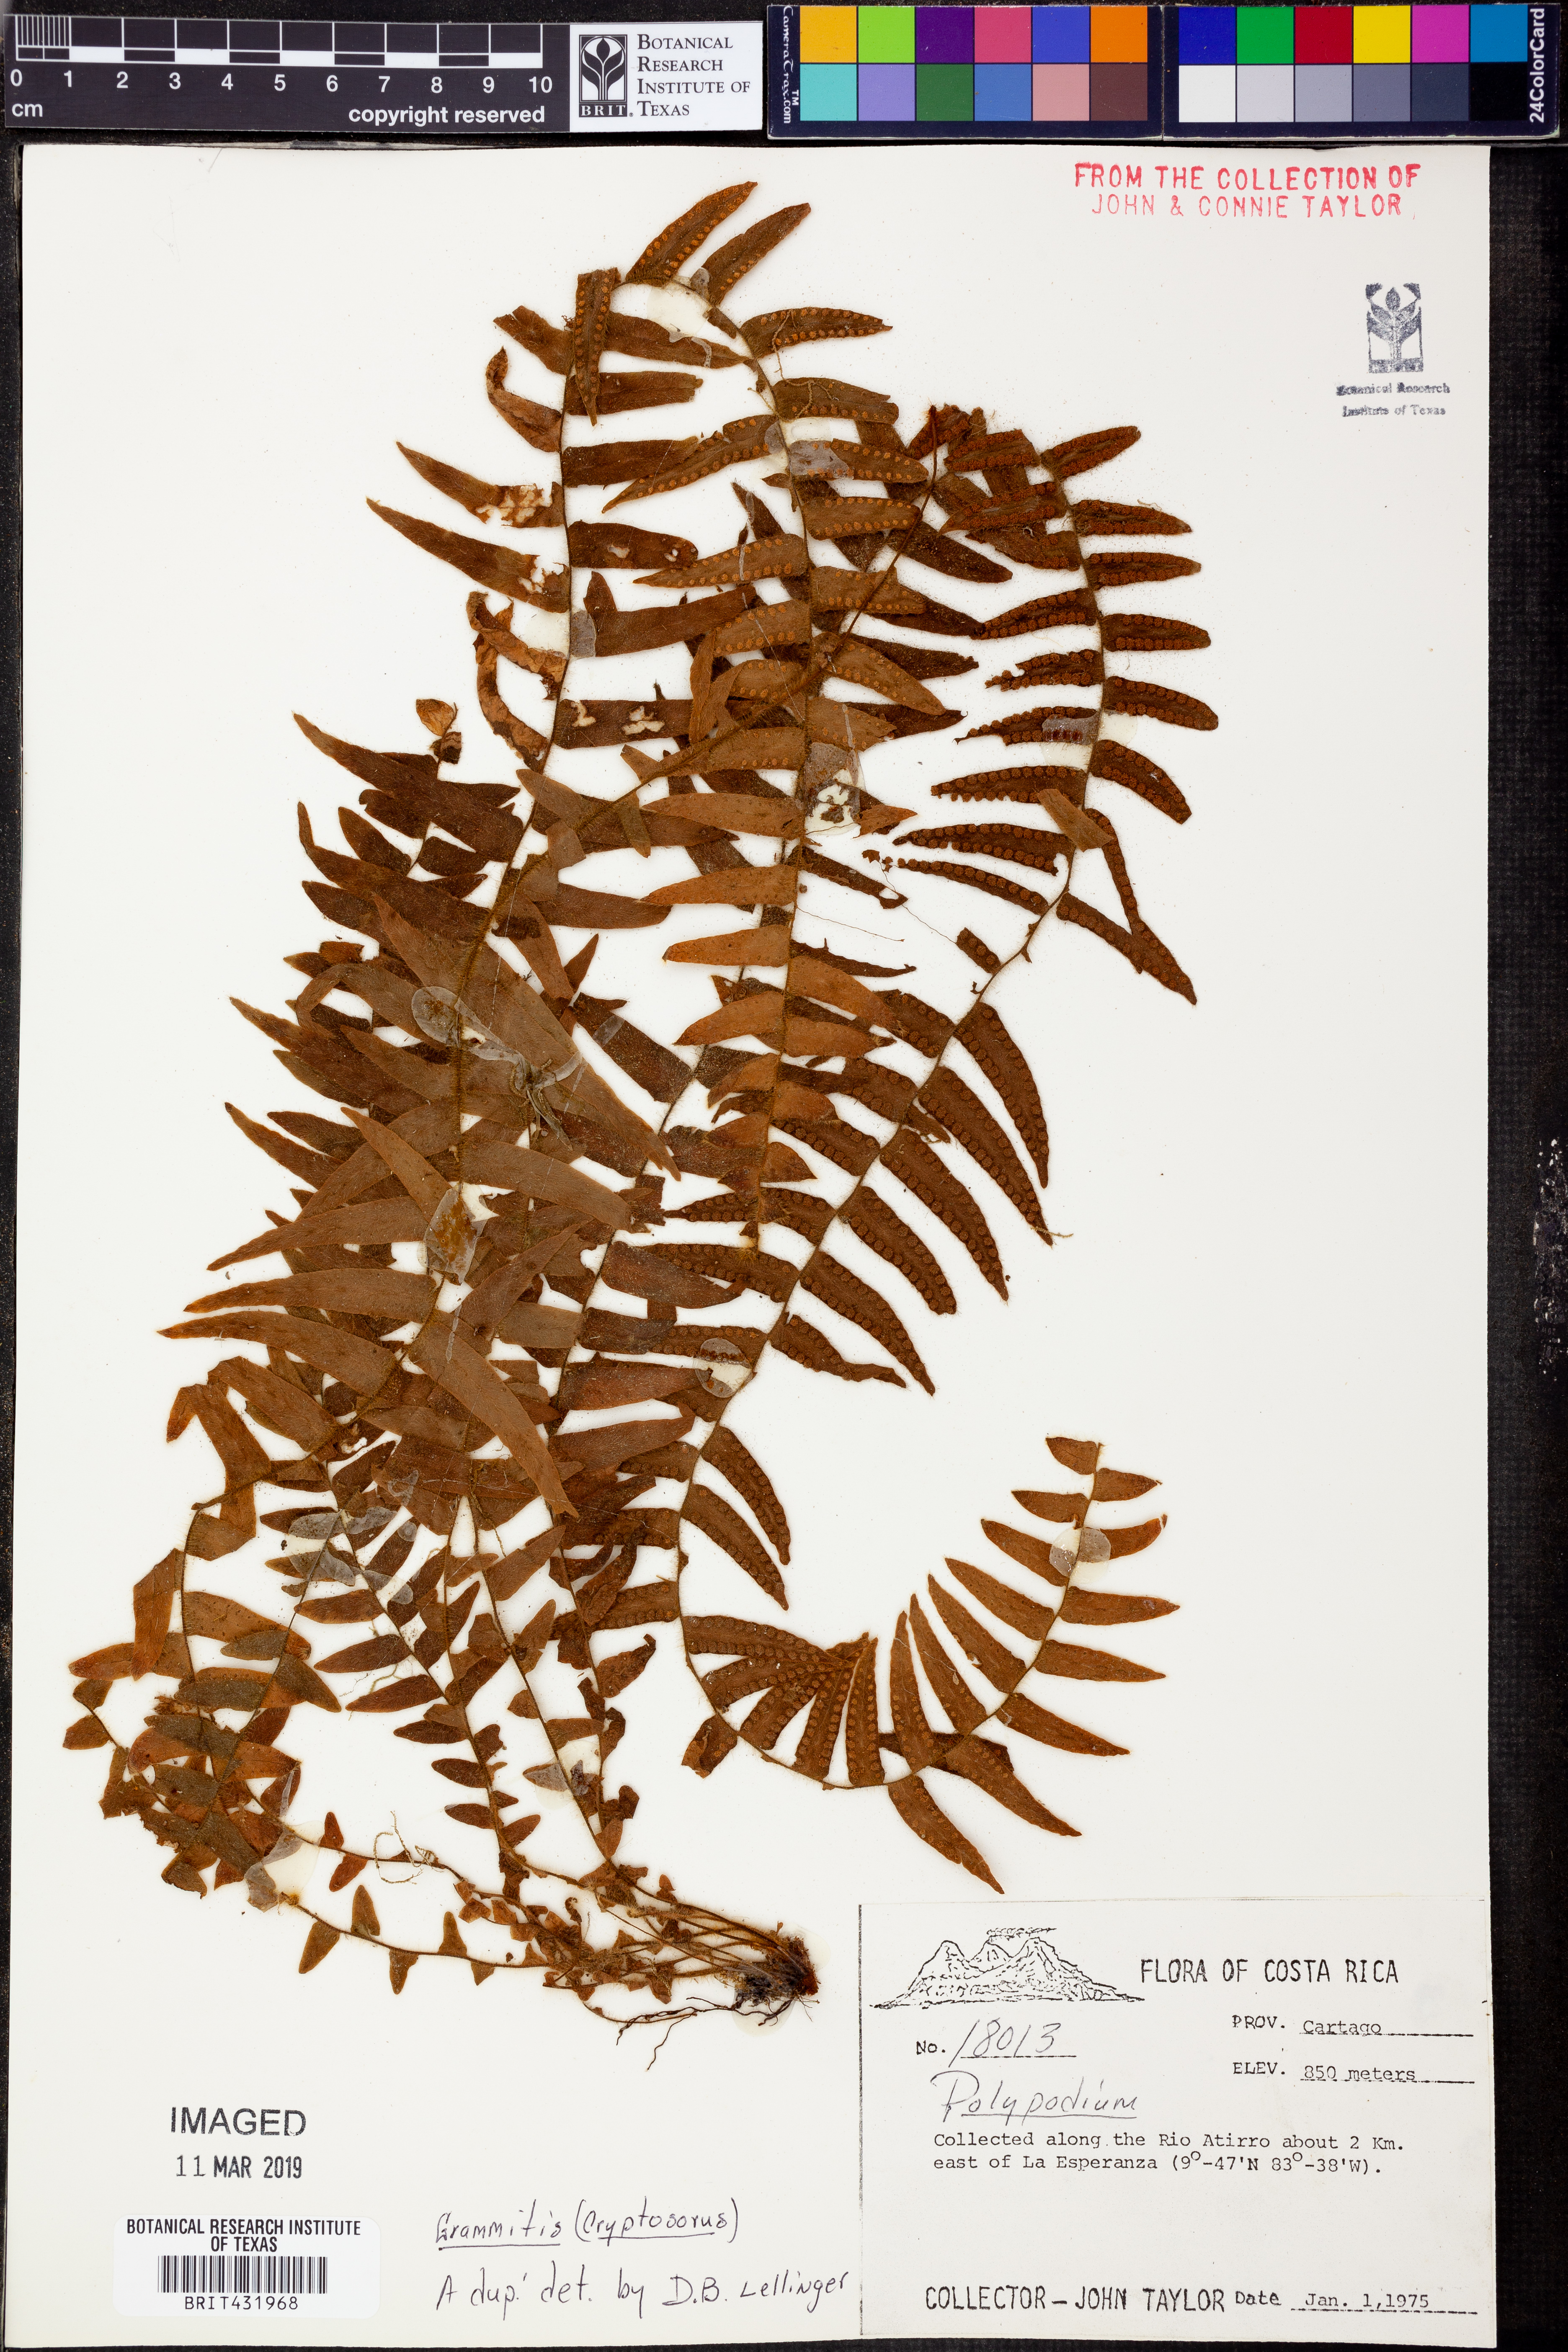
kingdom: Plantae
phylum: Tracheophyta
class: Polypodiopsida
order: Polypodiales
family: Polypodiaceae
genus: Grammitis
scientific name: Grammitis
